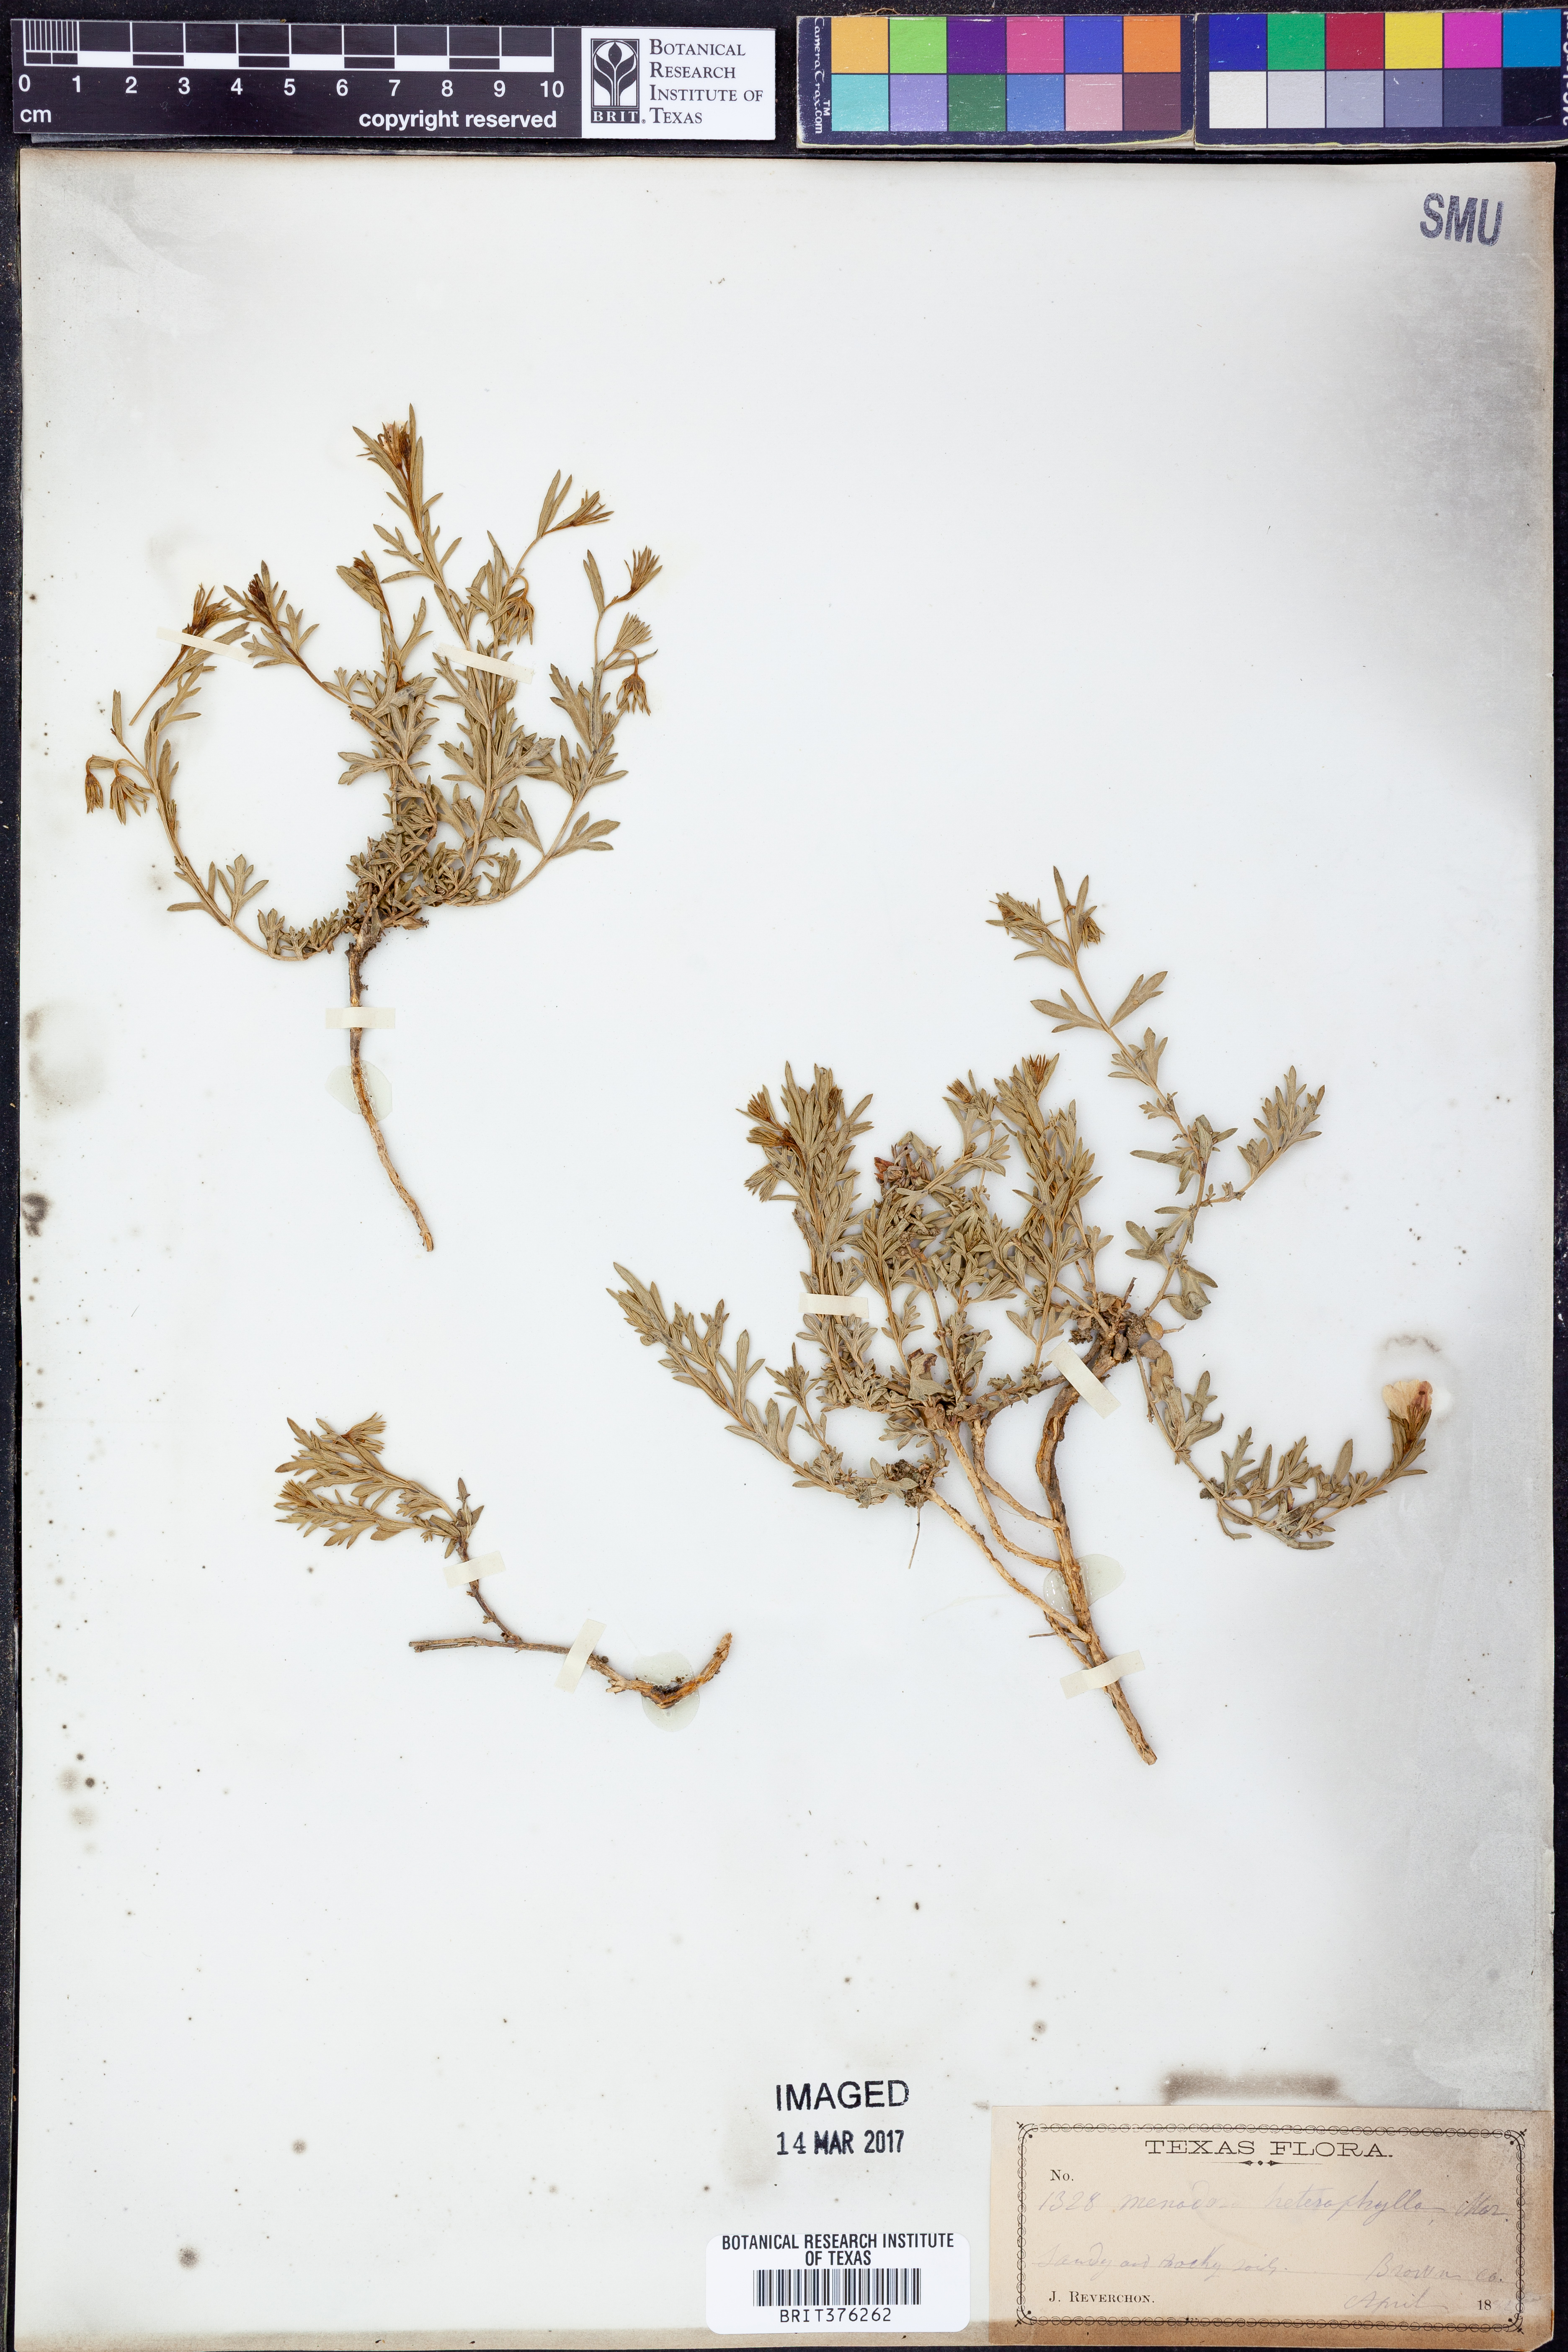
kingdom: Plantae
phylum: Tracheophyta
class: Magnoliopsida
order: Lamiales
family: Oleaceae
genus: Menodora
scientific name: Menodora heterophylla
